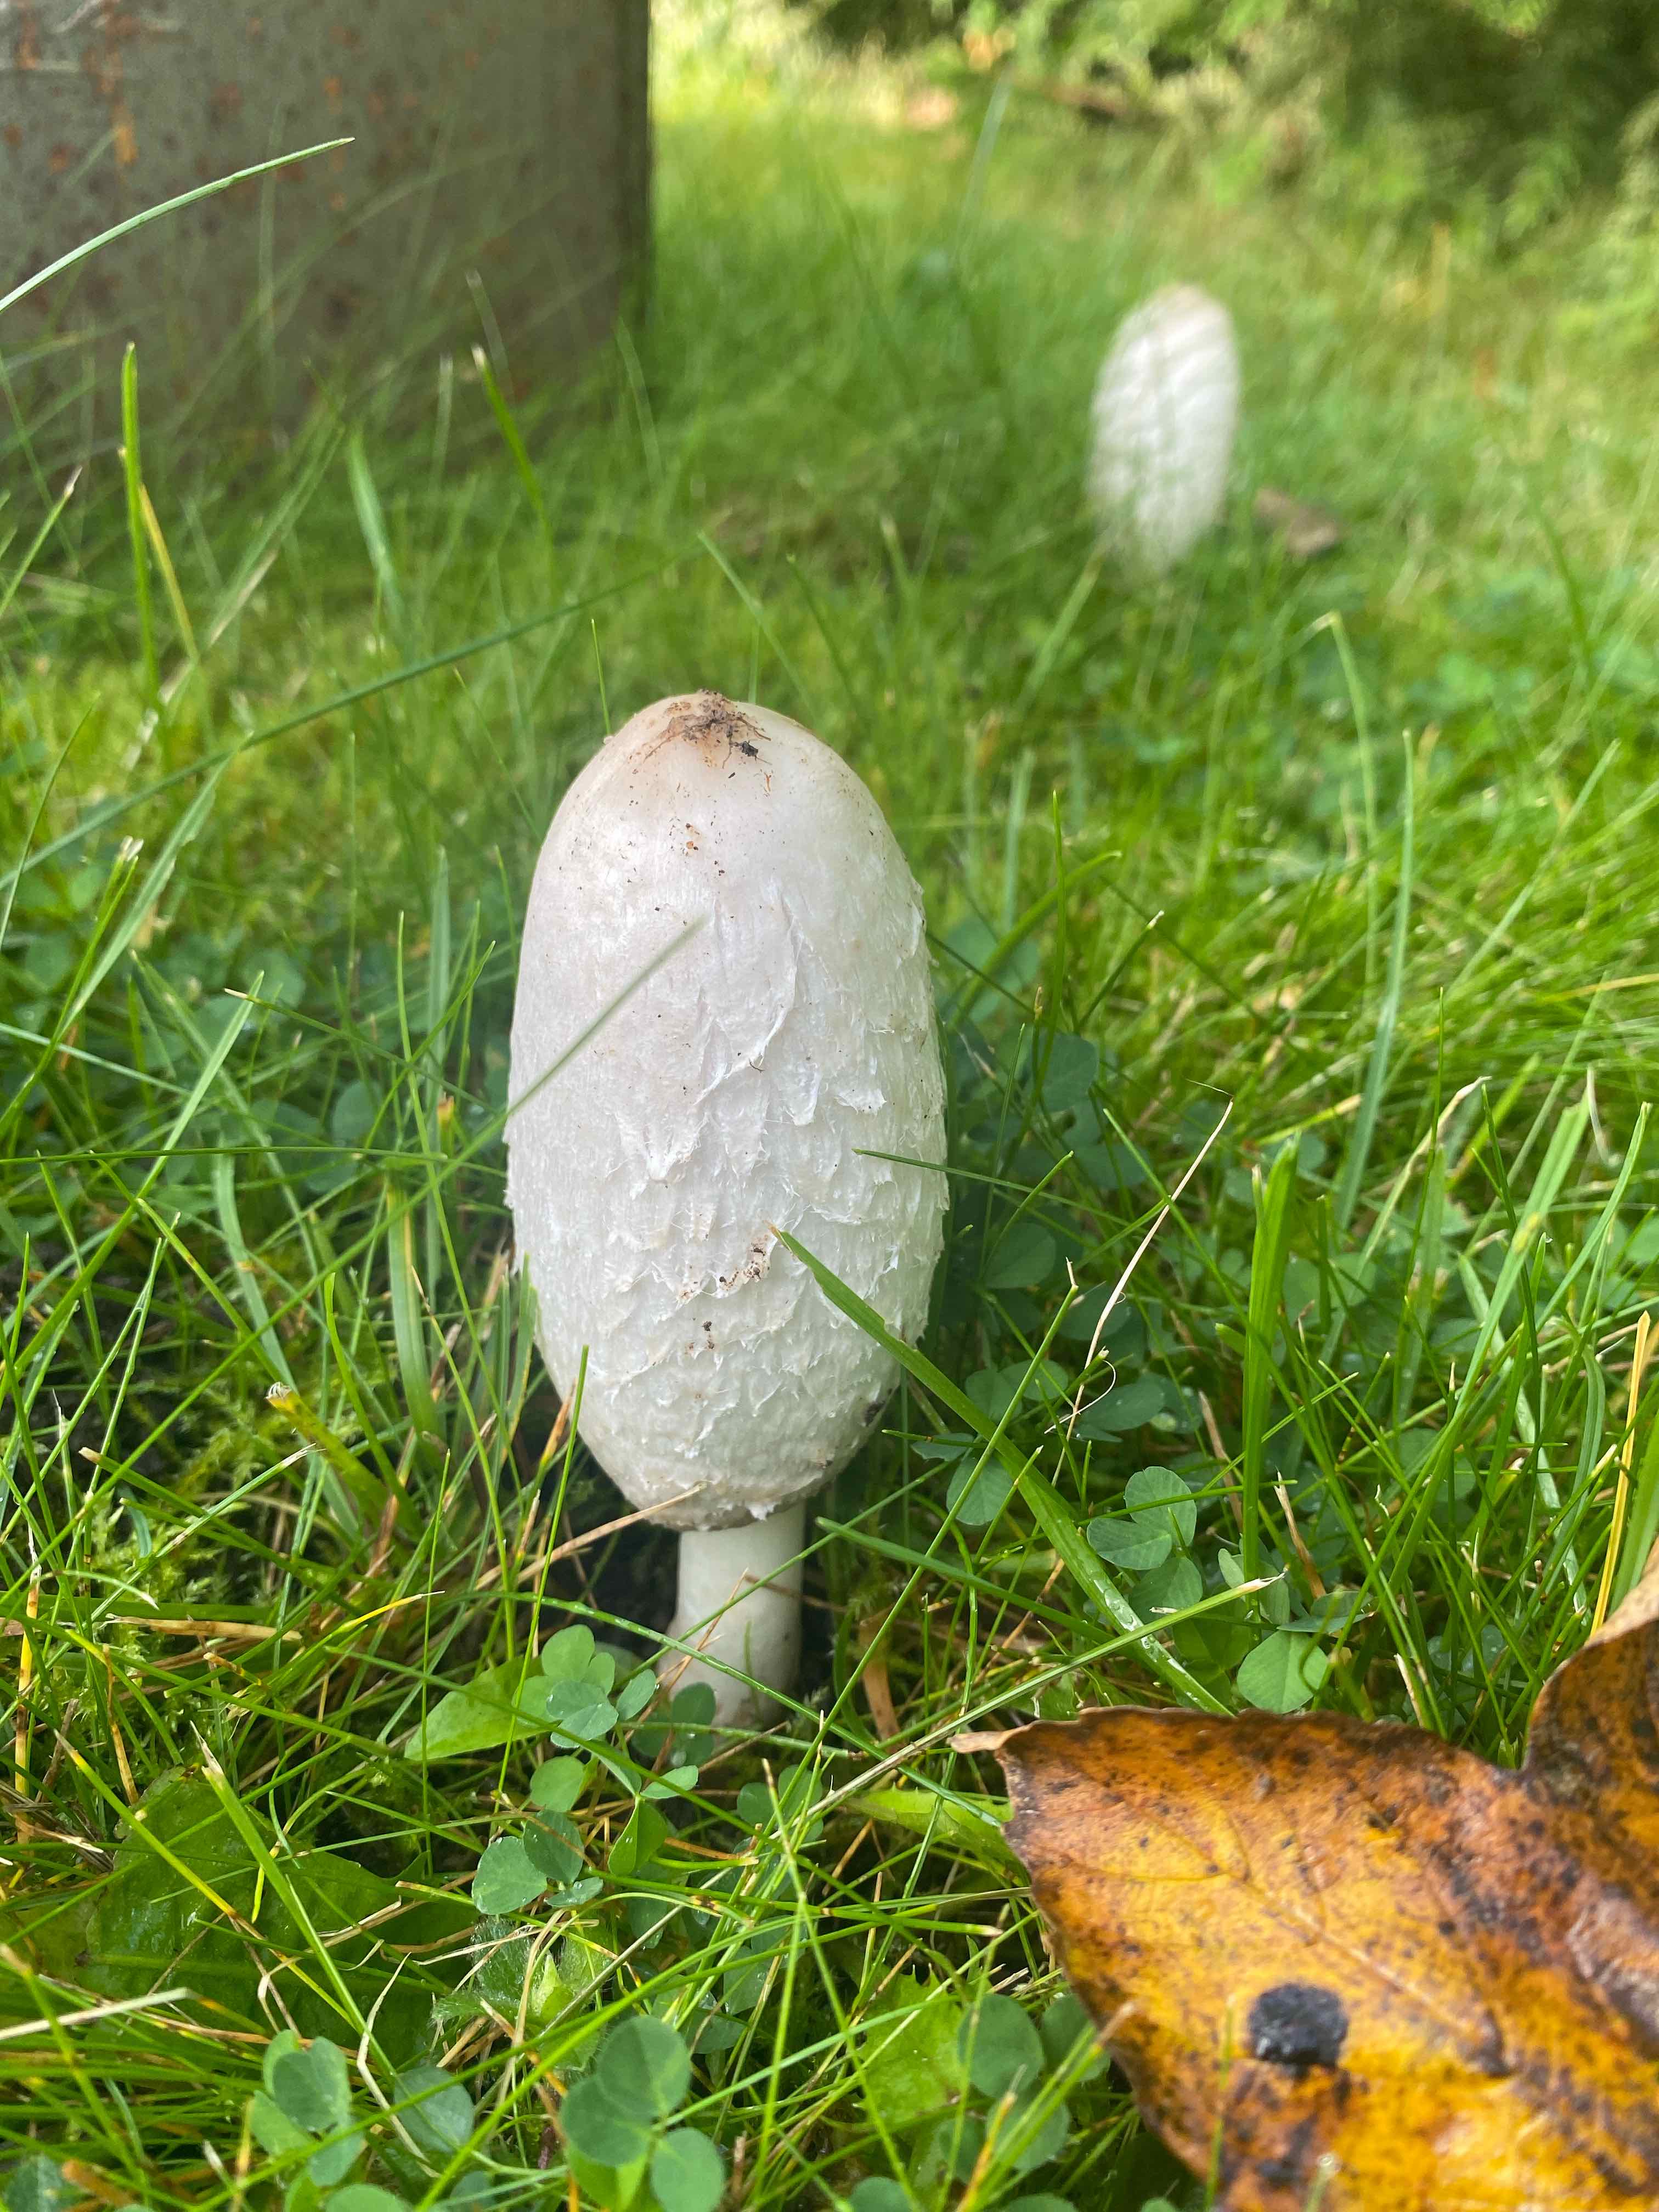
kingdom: Fungi
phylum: Basidiomycota
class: Agaricomycetes
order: Agaricales
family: Agaricaceae
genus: Coprinus
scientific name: Coprinus comatus
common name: stor parykhat
